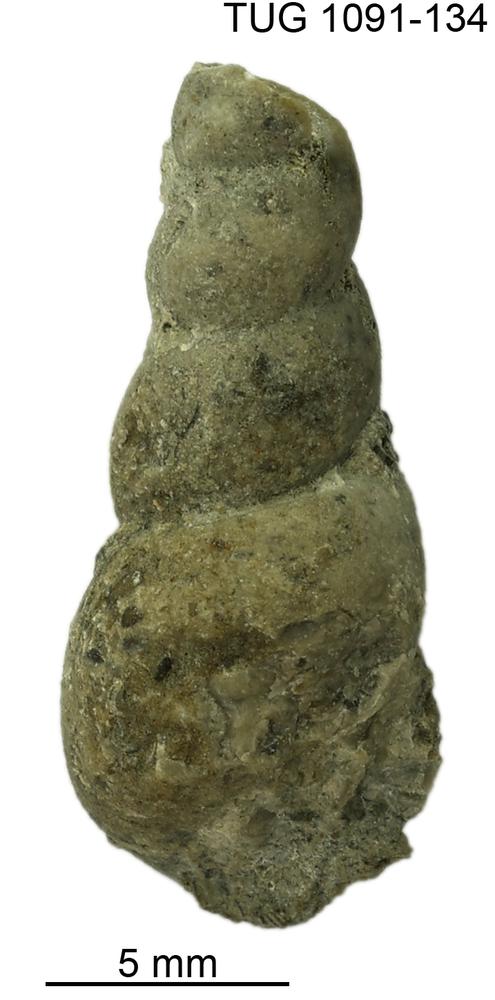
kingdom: Animalia
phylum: Mollusca
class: Gastropoda
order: Pleurotomariida
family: Murchisoniidae
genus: Hormotoma
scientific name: Hormotoma
